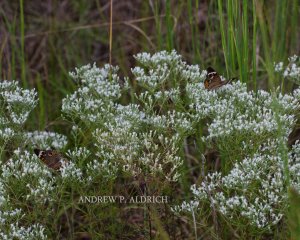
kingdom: Animalia
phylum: Arthropoda
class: Insecta
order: Lepidoptera
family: Nymphalidae
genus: Junonia
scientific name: Junonia coenia
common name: Common Buckeye
